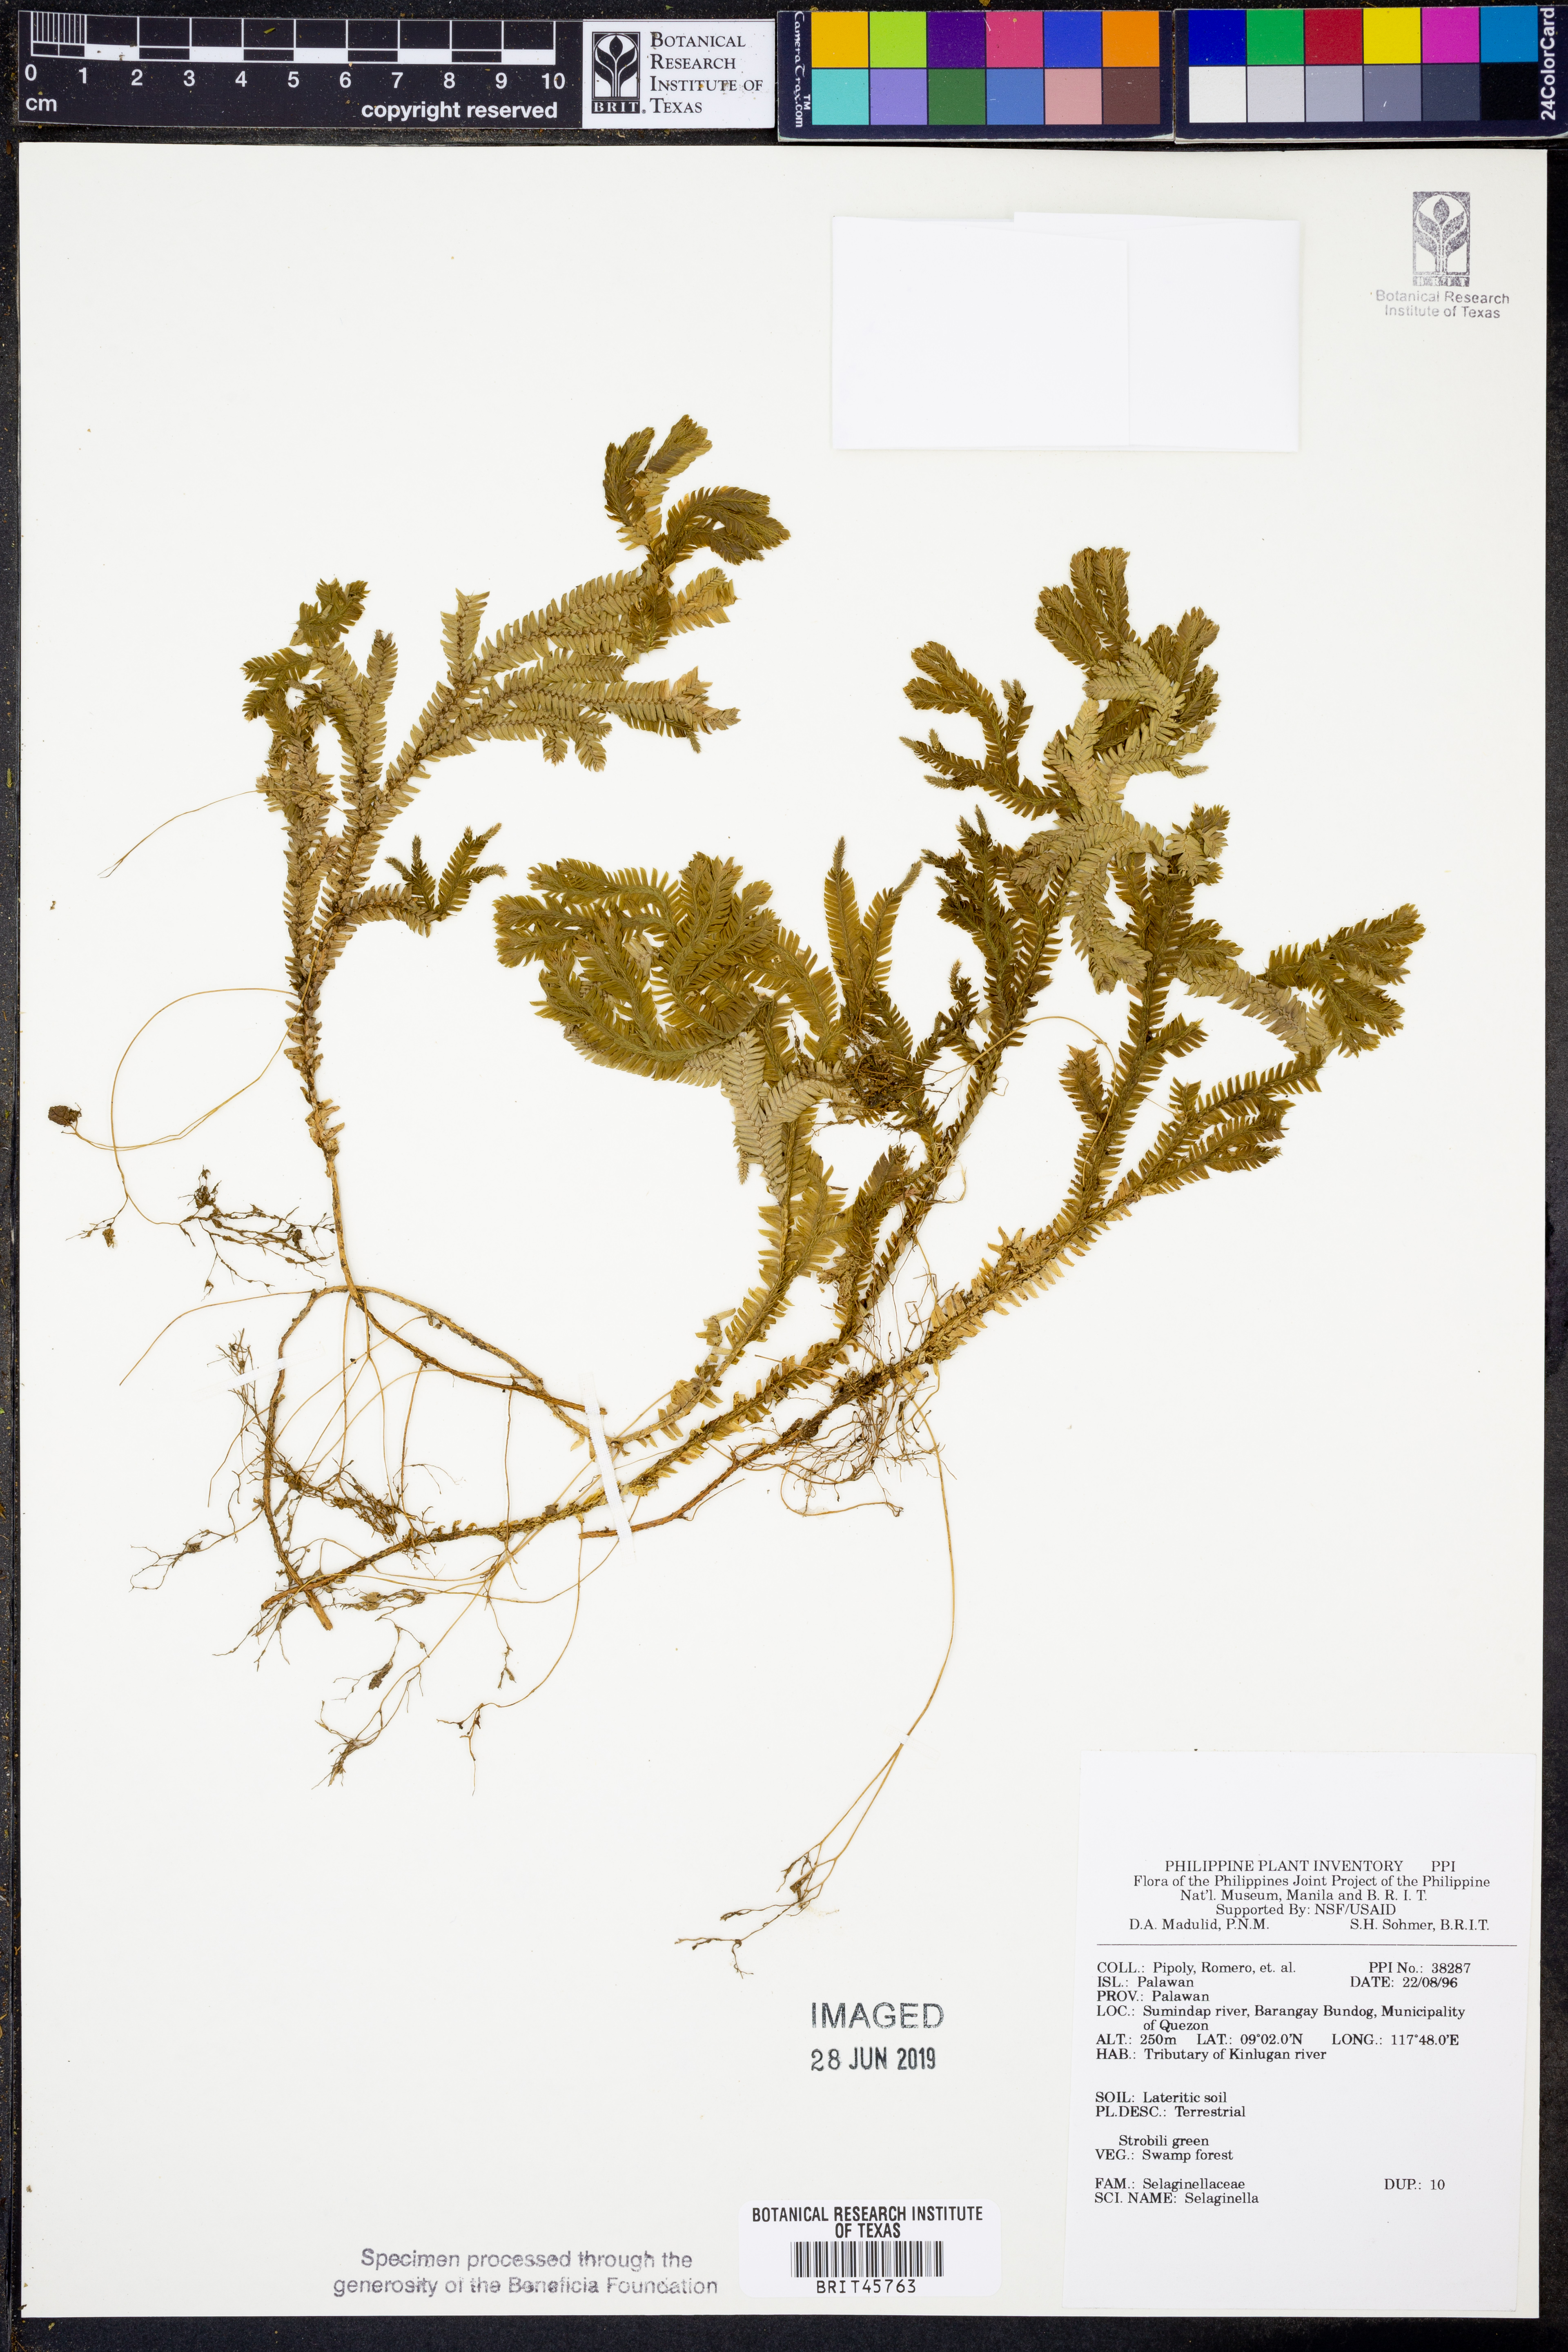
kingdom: Plantae
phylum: Tracheophyta
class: Lycopodiopsida
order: Selaginellales
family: Selaginellaceae
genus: Selaginella
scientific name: Selaginella
